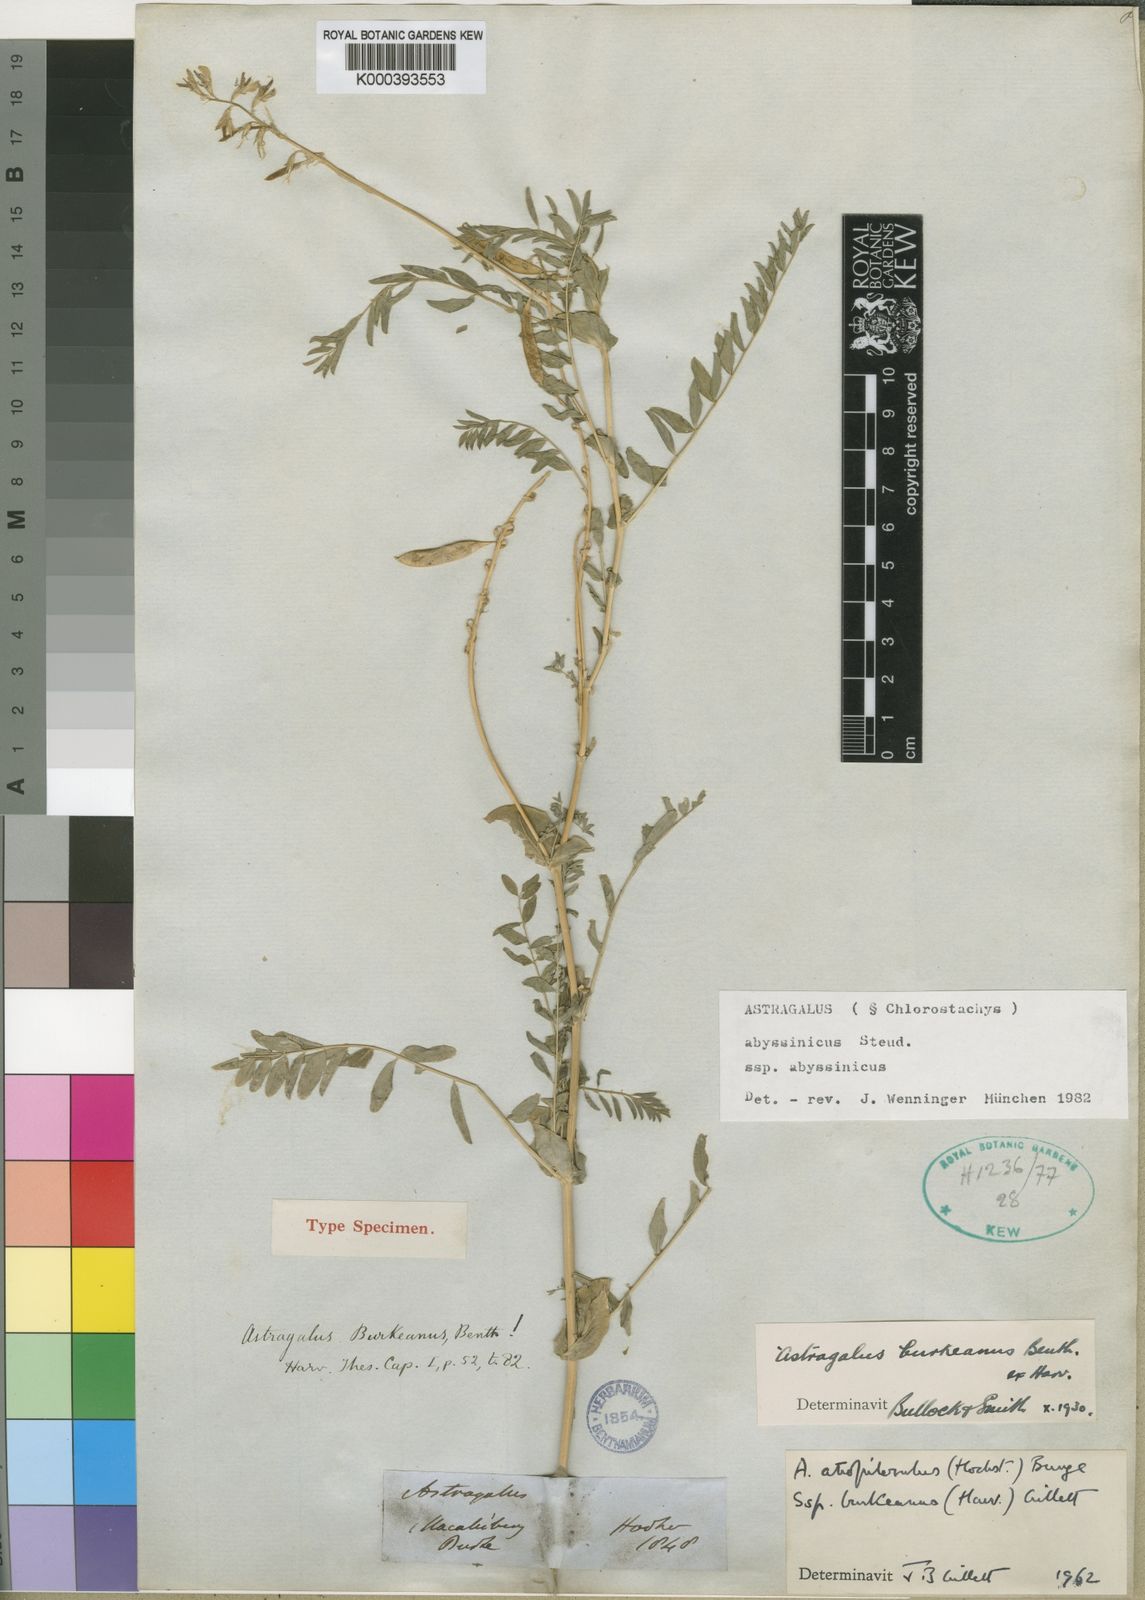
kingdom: Plantae
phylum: Tracheophyta
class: Magnoliopsida
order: Fabales
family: Fabaceae
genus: Astragalus
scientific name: Astragalus atropilosulus
